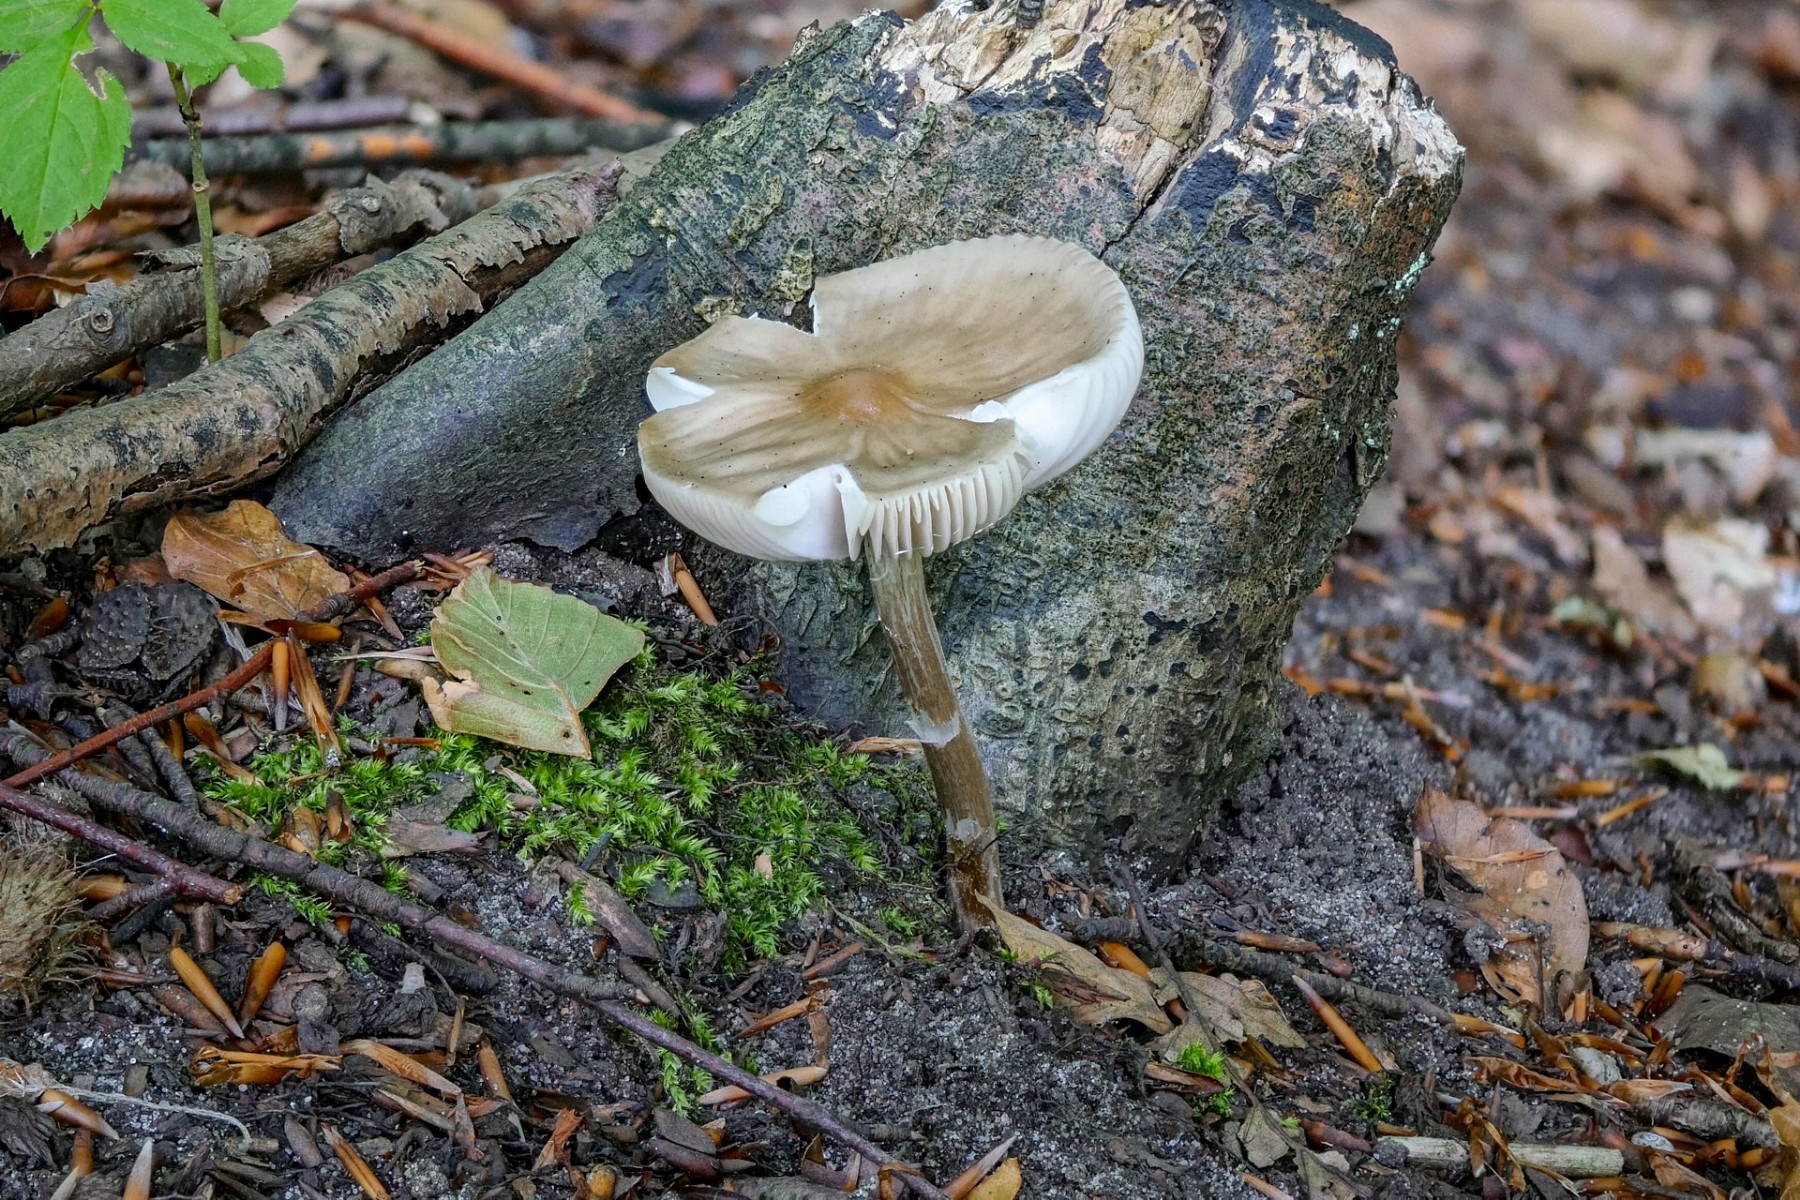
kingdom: Fungi
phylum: Basidiomycota
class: Agaricomycetes
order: Agaricales
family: Physalacriaceae
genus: Hymenopellis
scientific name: Hymenopellis radicata
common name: almindelig pælerodshat
